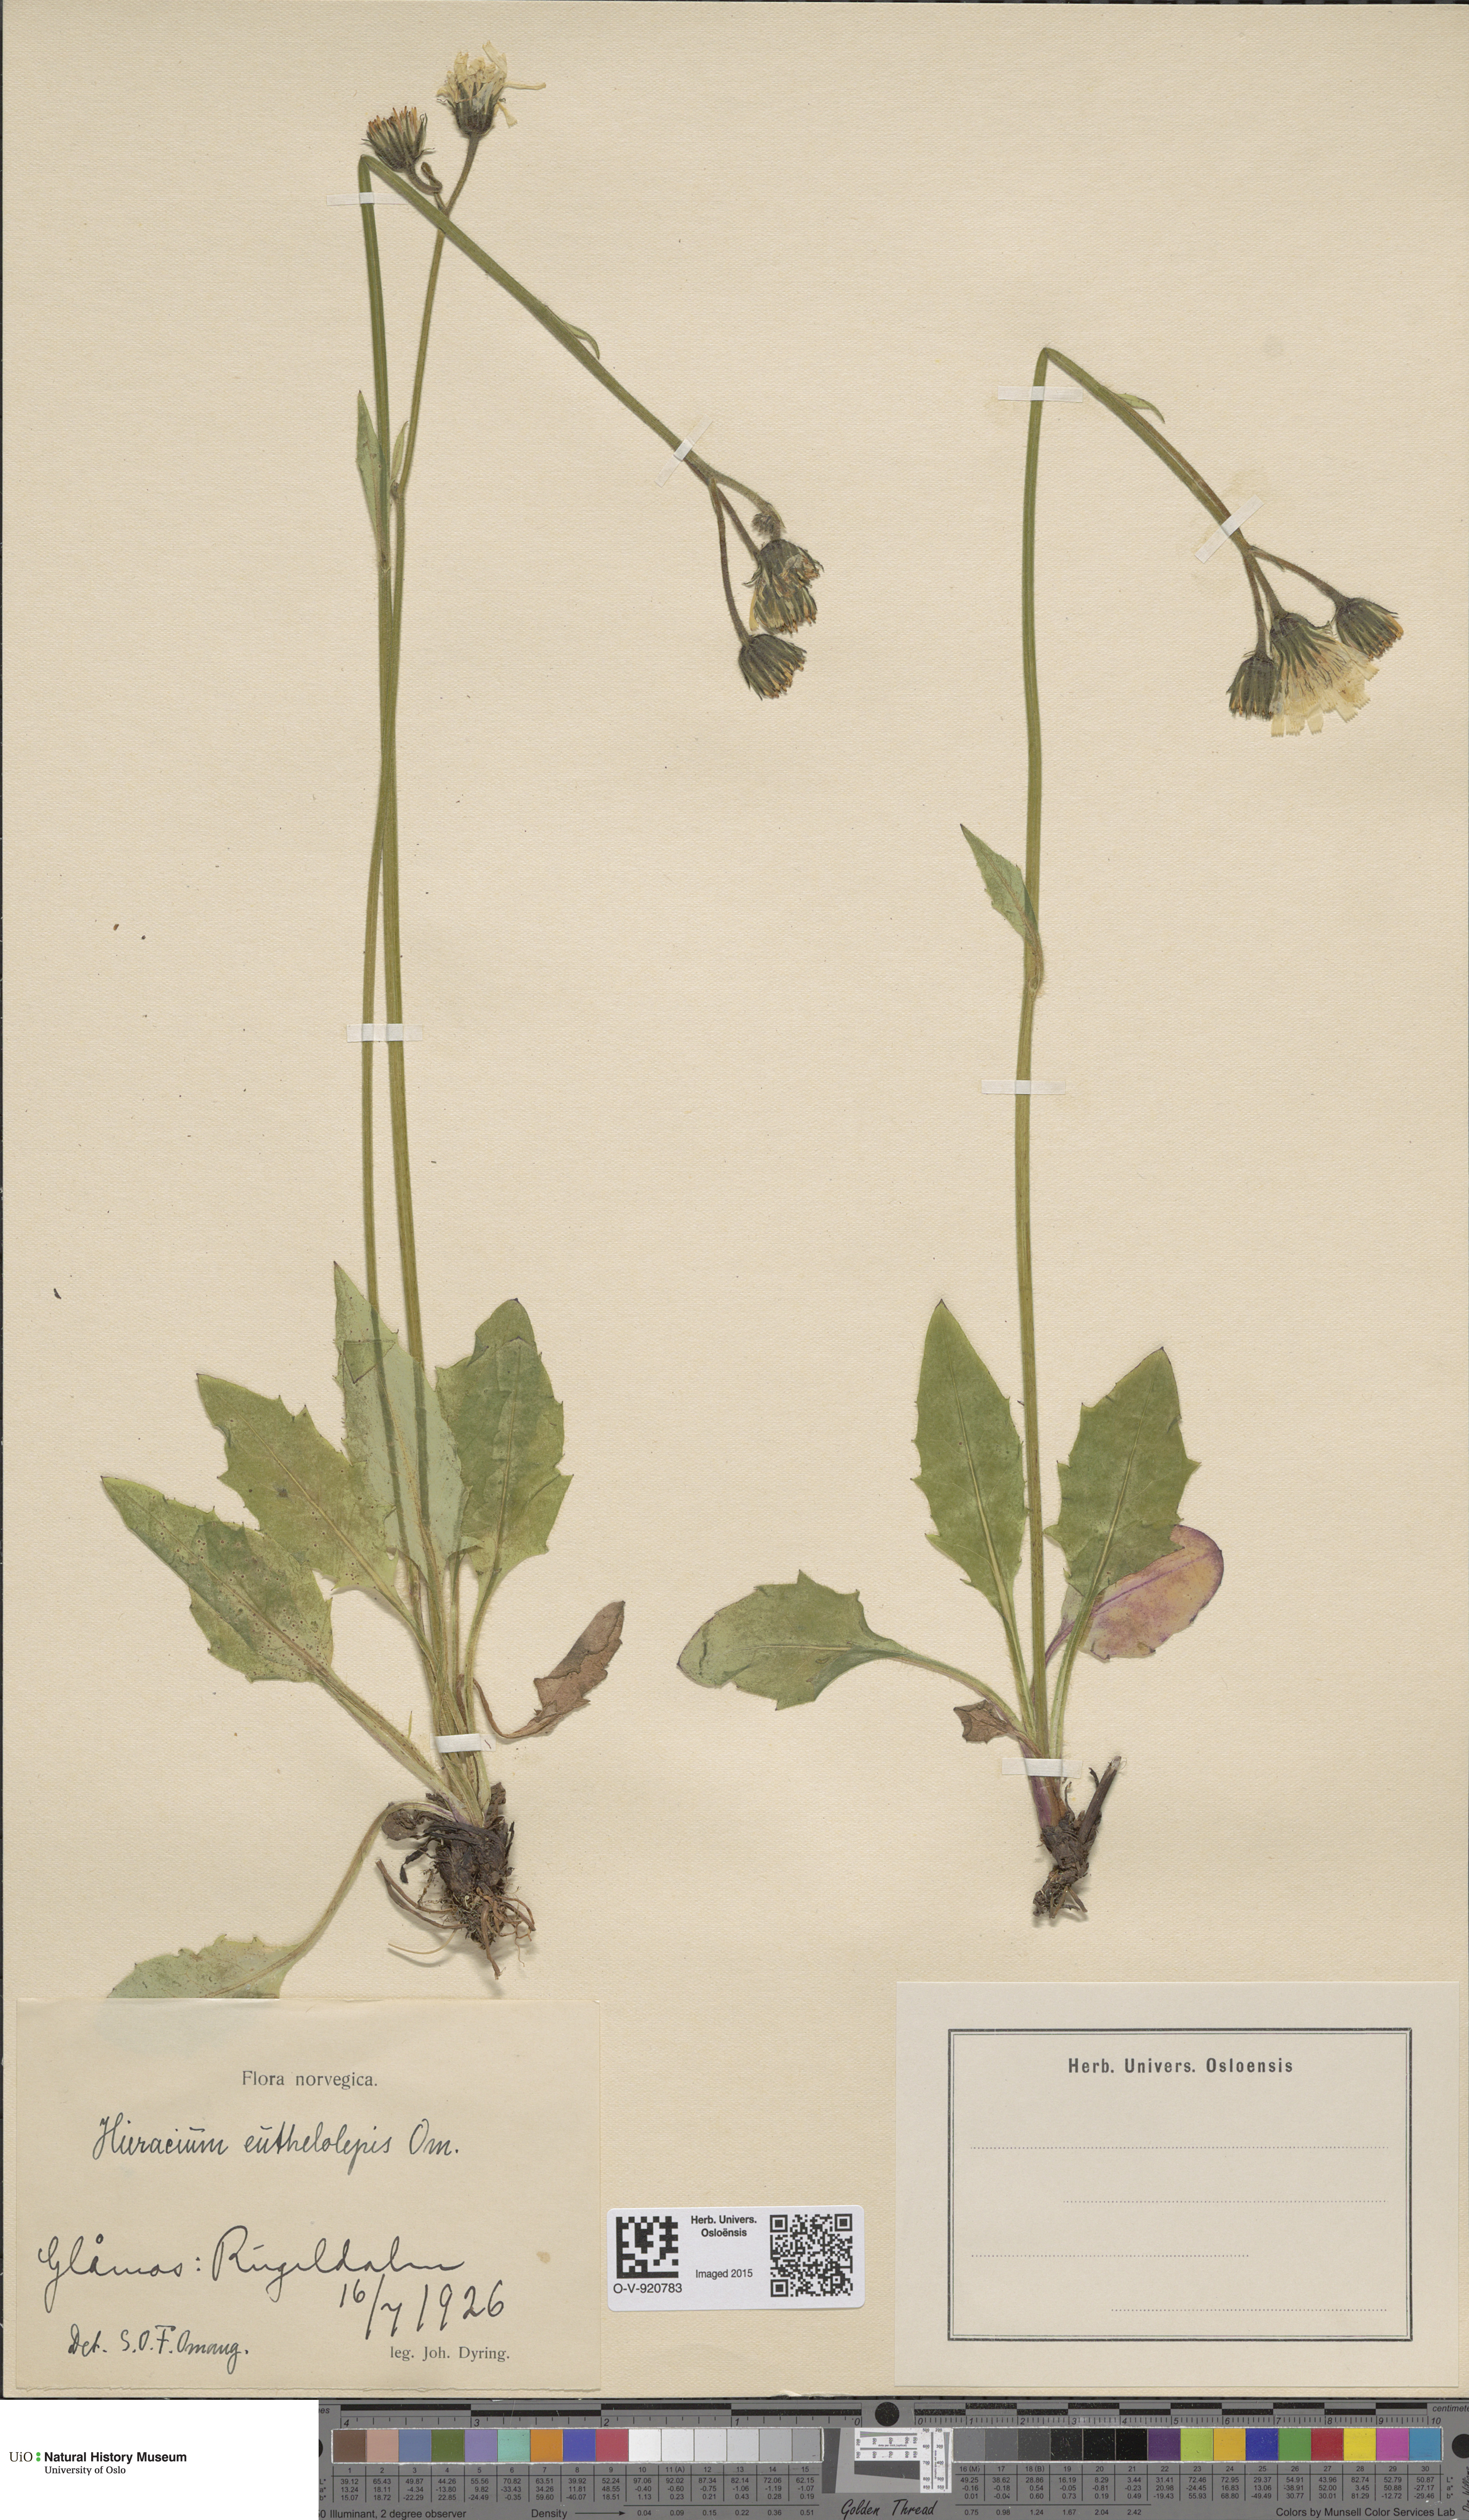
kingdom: Plantae
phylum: Tracheophyta
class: Magnoliopsida
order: Asterales
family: Asteraceae
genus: Hieracium
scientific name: Hieracium
